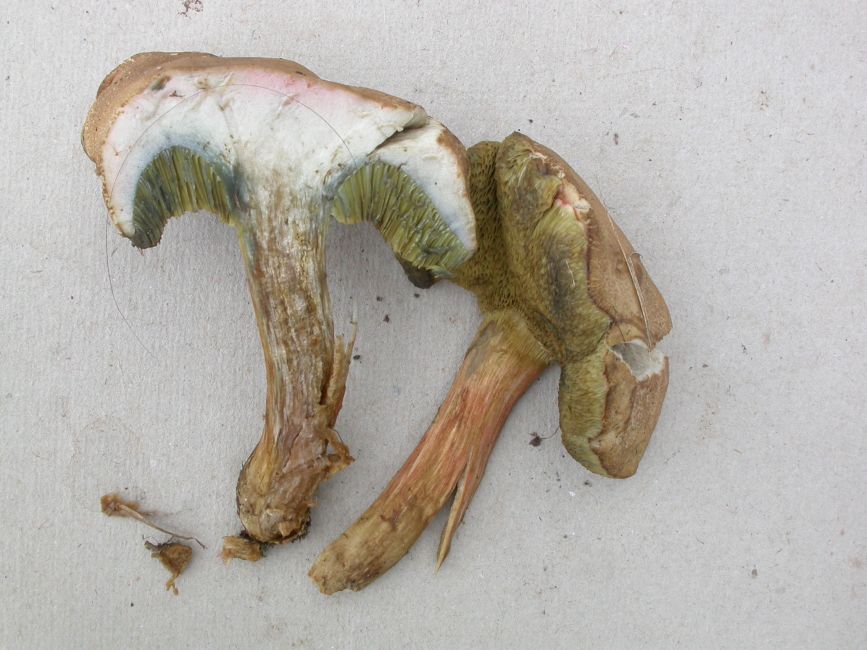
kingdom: Fungi
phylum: Basidiomycota
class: Agaricomycetes
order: Boletales
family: Boletaceae
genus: Hortiboletus
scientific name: Hortiboletus bubalinus
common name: aurora-rørhat
